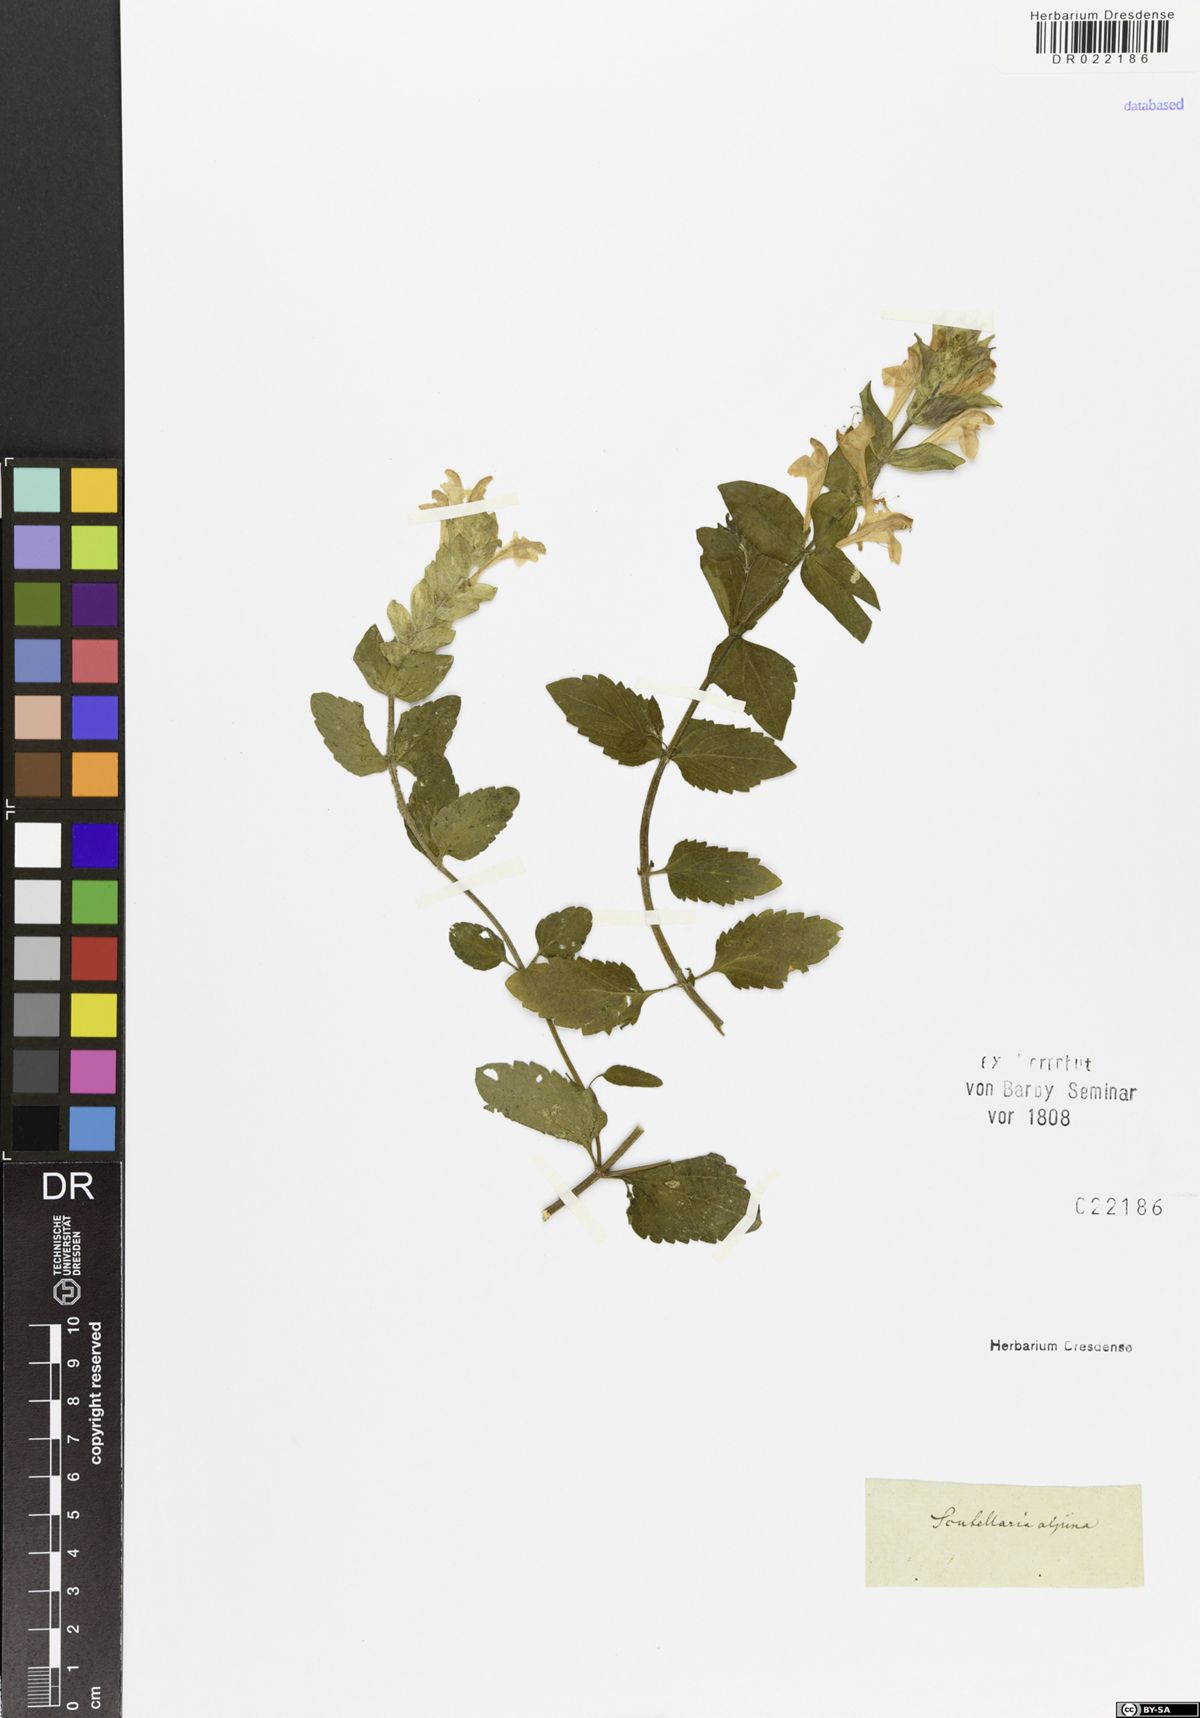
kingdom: Plantae
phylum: Tracheophyta
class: Magnoliopsida
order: Lamiales
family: Lamiaceae
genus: Scutellaria
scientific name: Scutellaria alpina
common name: Alpine scullcap
